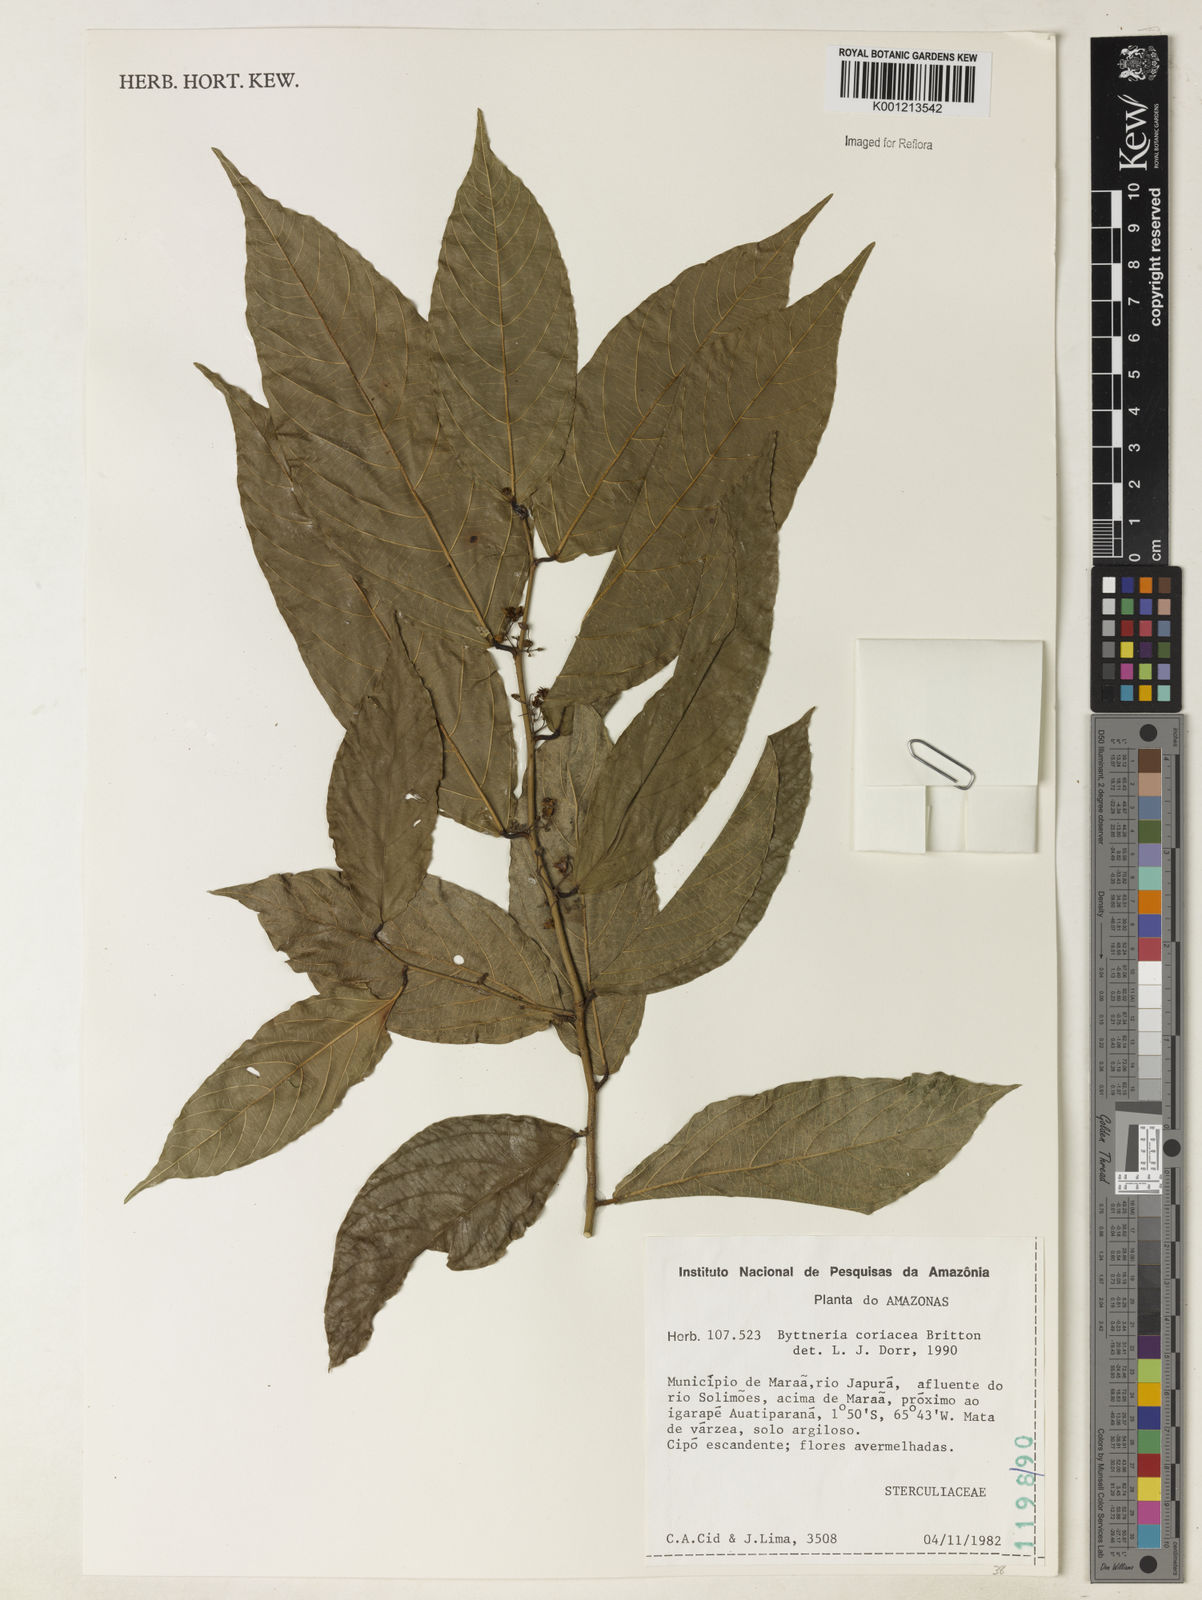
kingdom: Plantae
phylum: Tracheophyta
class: Magnoliopsida
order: Malvales
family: Malvaceae
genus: Byttneria
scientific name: Byttneria coriacea
